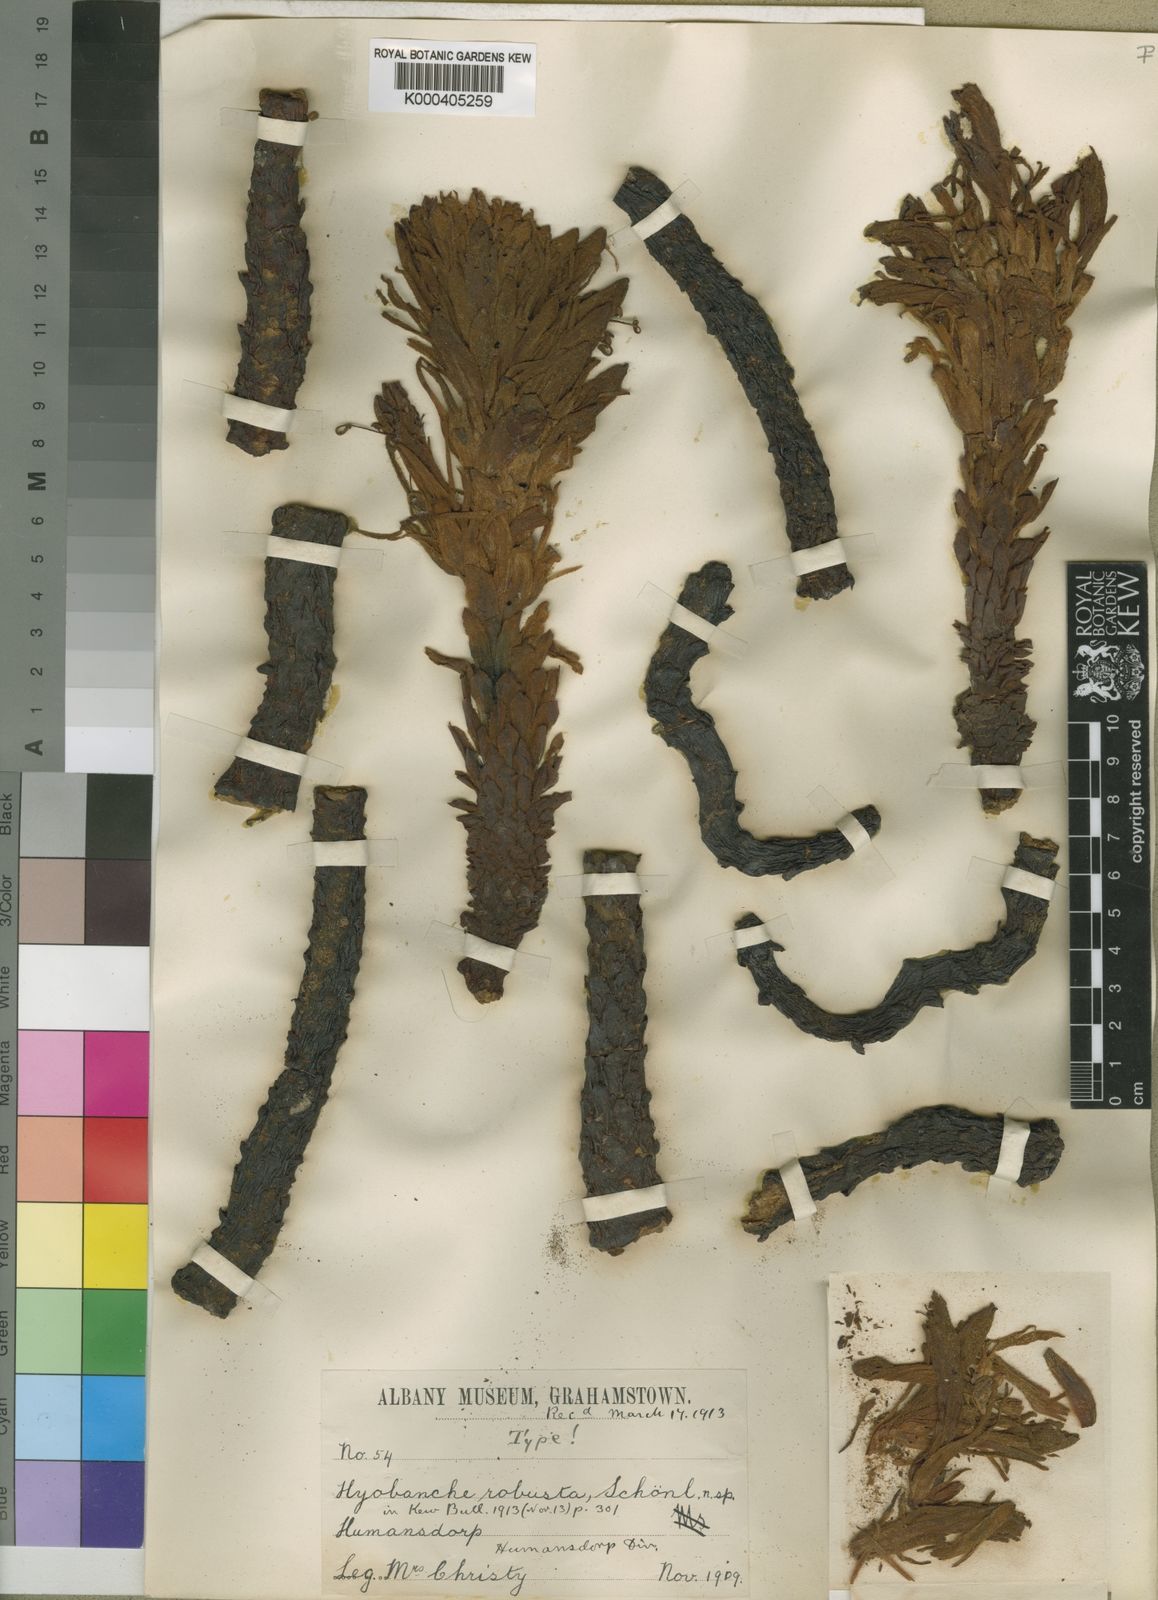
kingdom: Plantae
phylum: Tracheophyta
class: Magnoliopsida
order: Lamiales
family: Orobanchaceae
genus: Hyobanche
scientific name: Hyobanche
